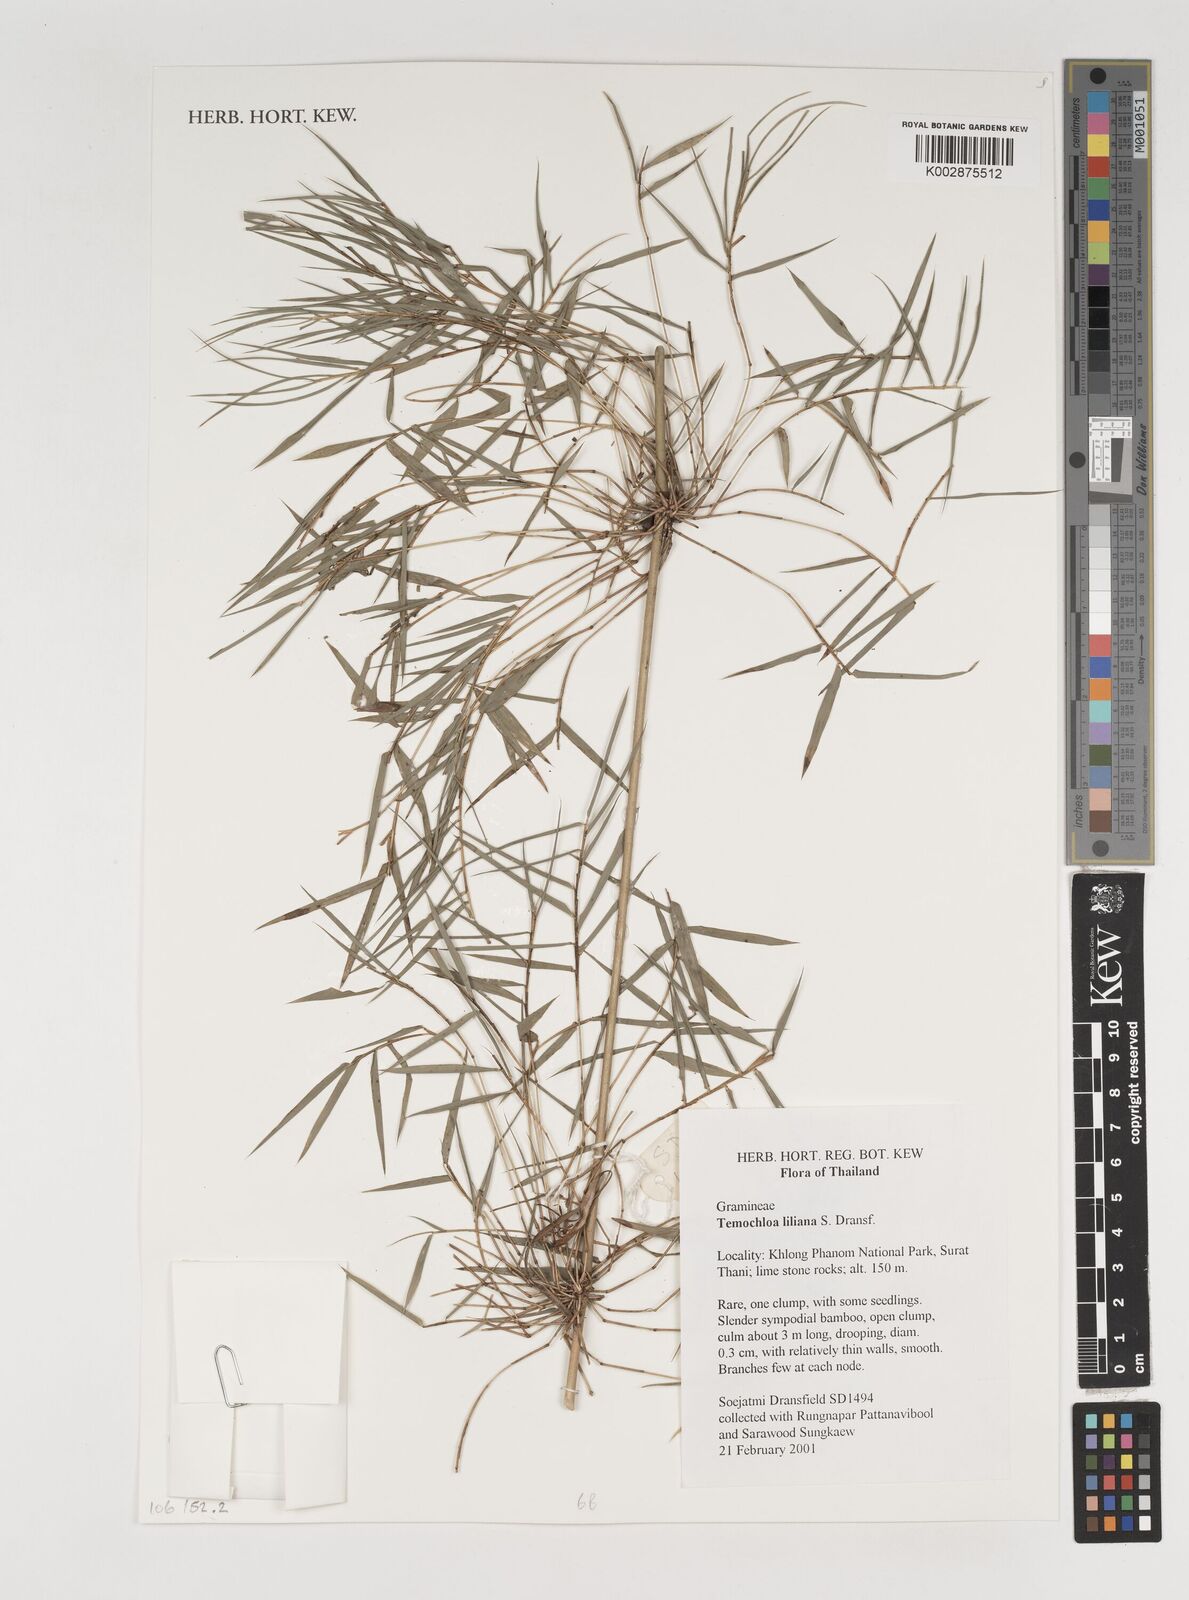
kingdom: Plantae
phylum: Tracheophyta
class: Liliopsida
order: Poales
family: Poaceae
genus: Temochloa
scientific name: Temochloa liliana
